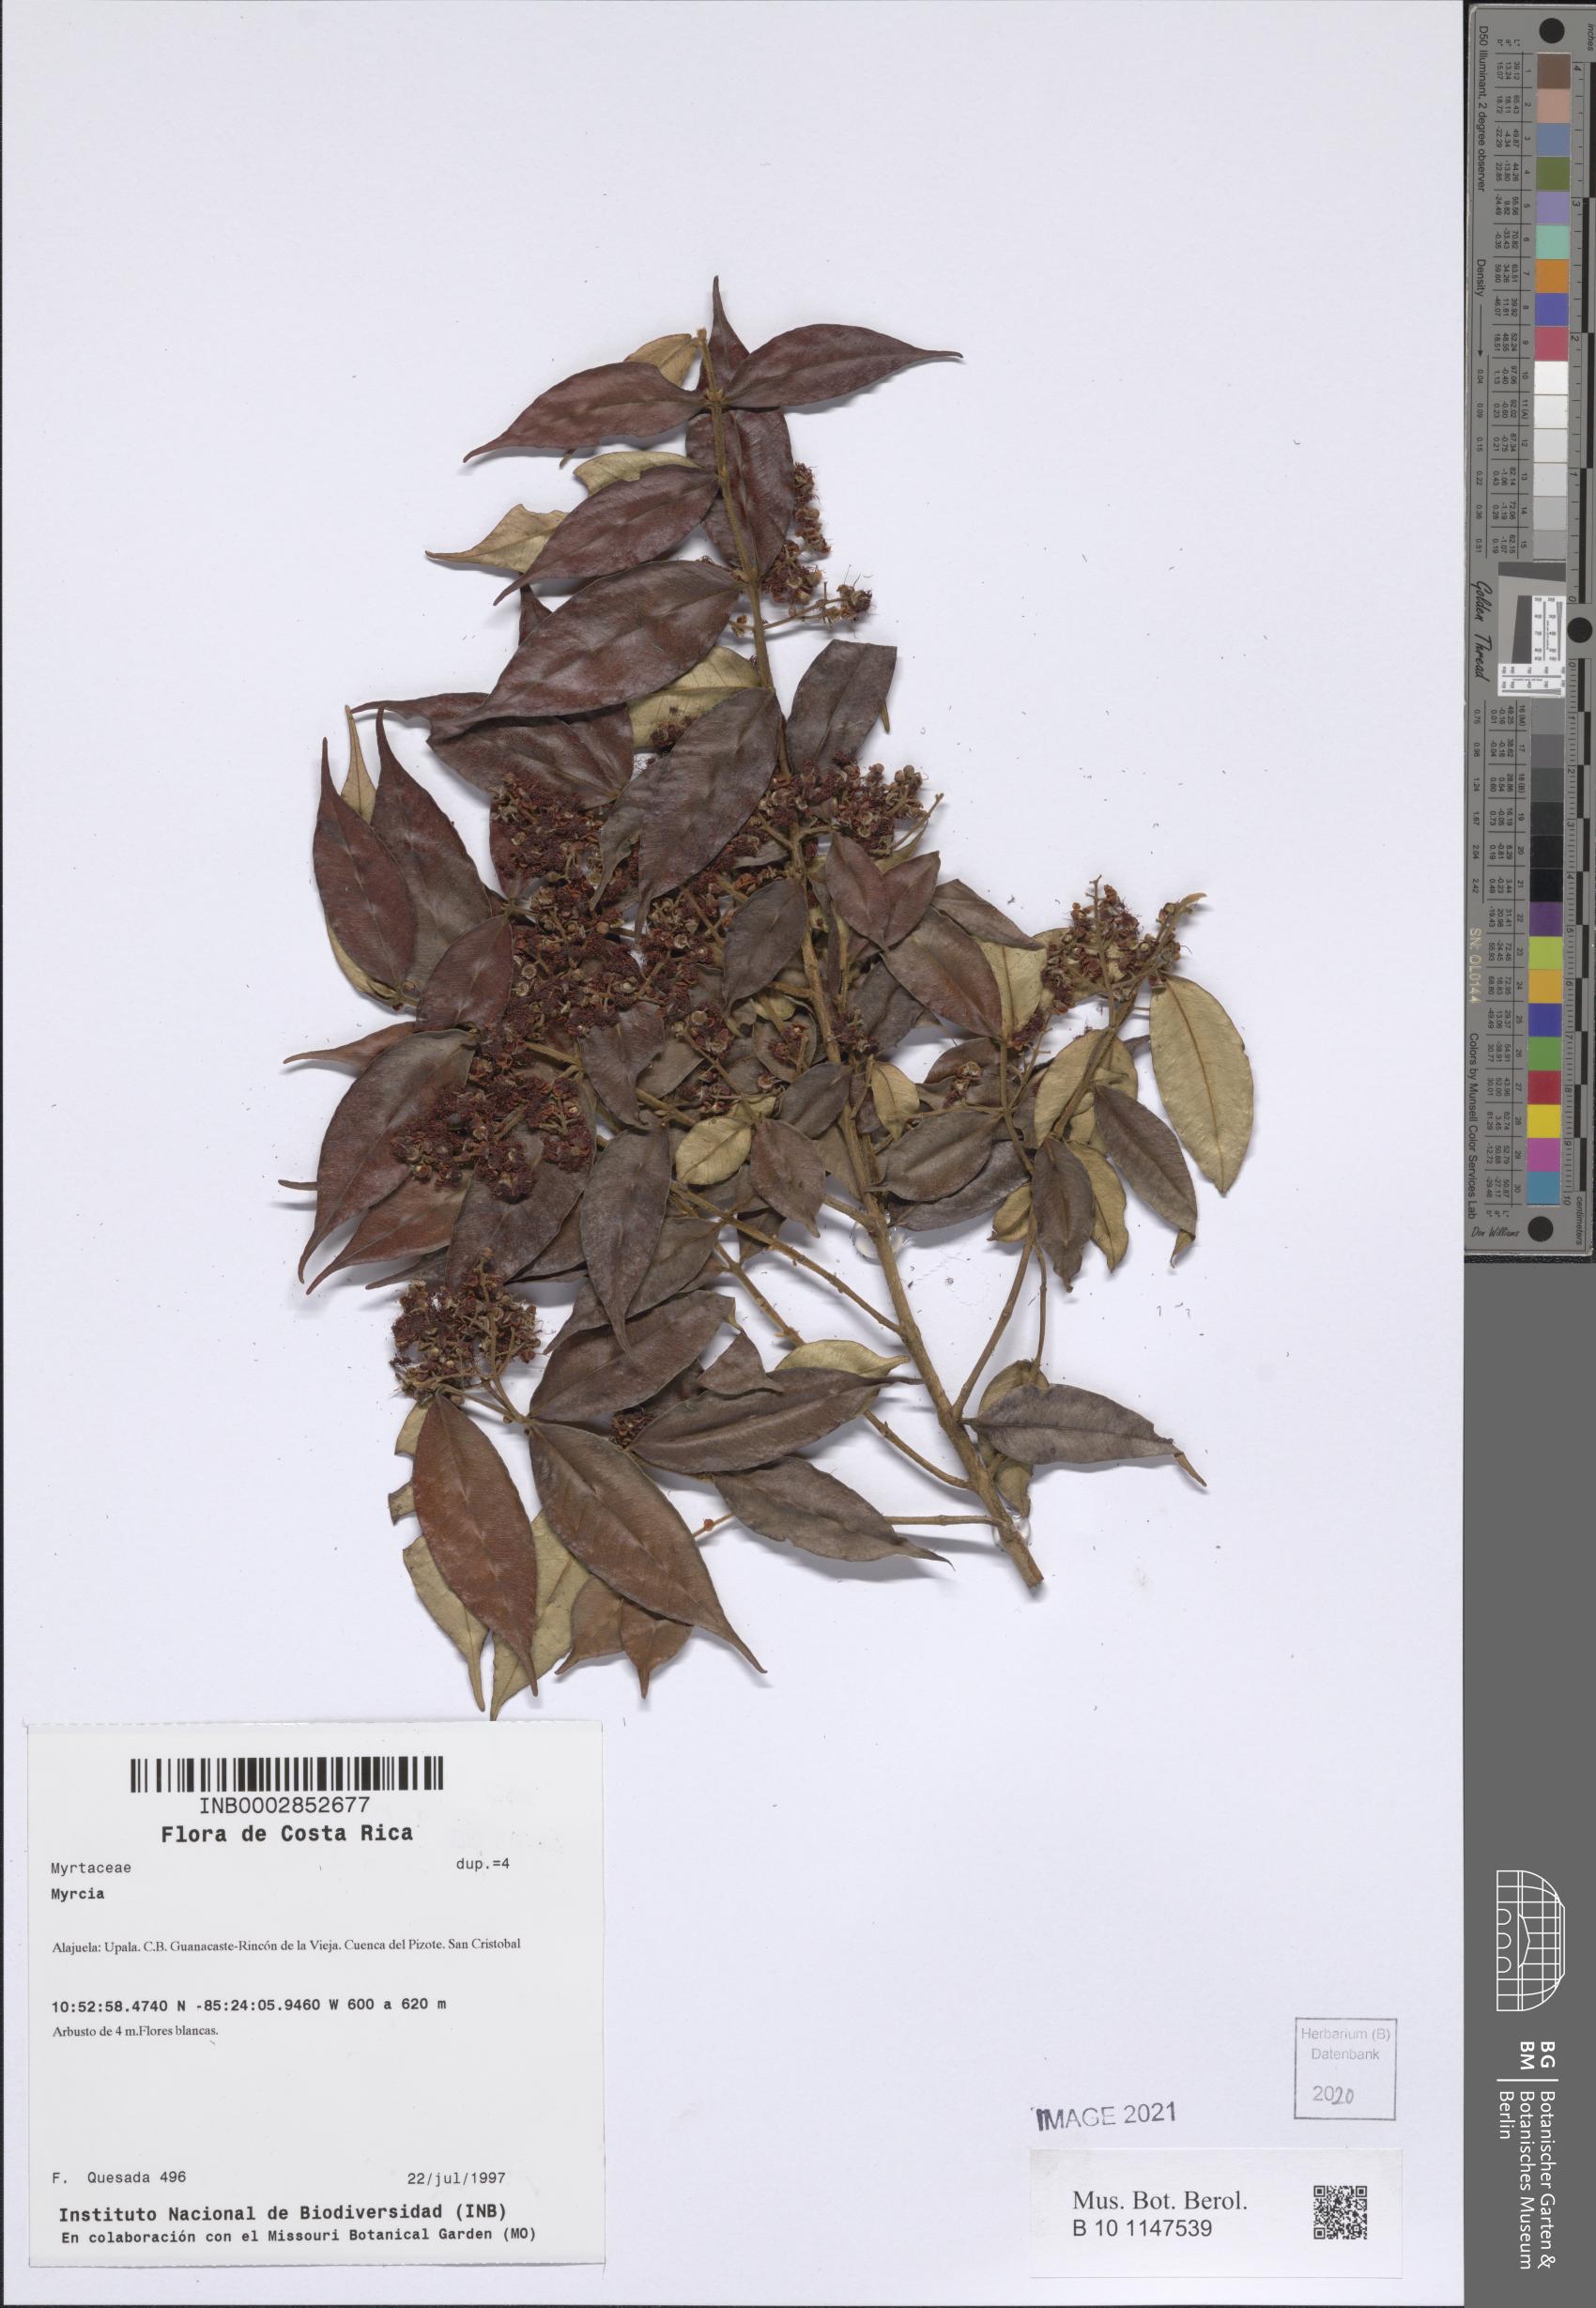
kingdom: Plantae
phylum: Tracheophyta
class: Magnoliopsida
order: Myrtales
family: Myrtaceae
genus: Myrcia
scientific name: Myrcia
